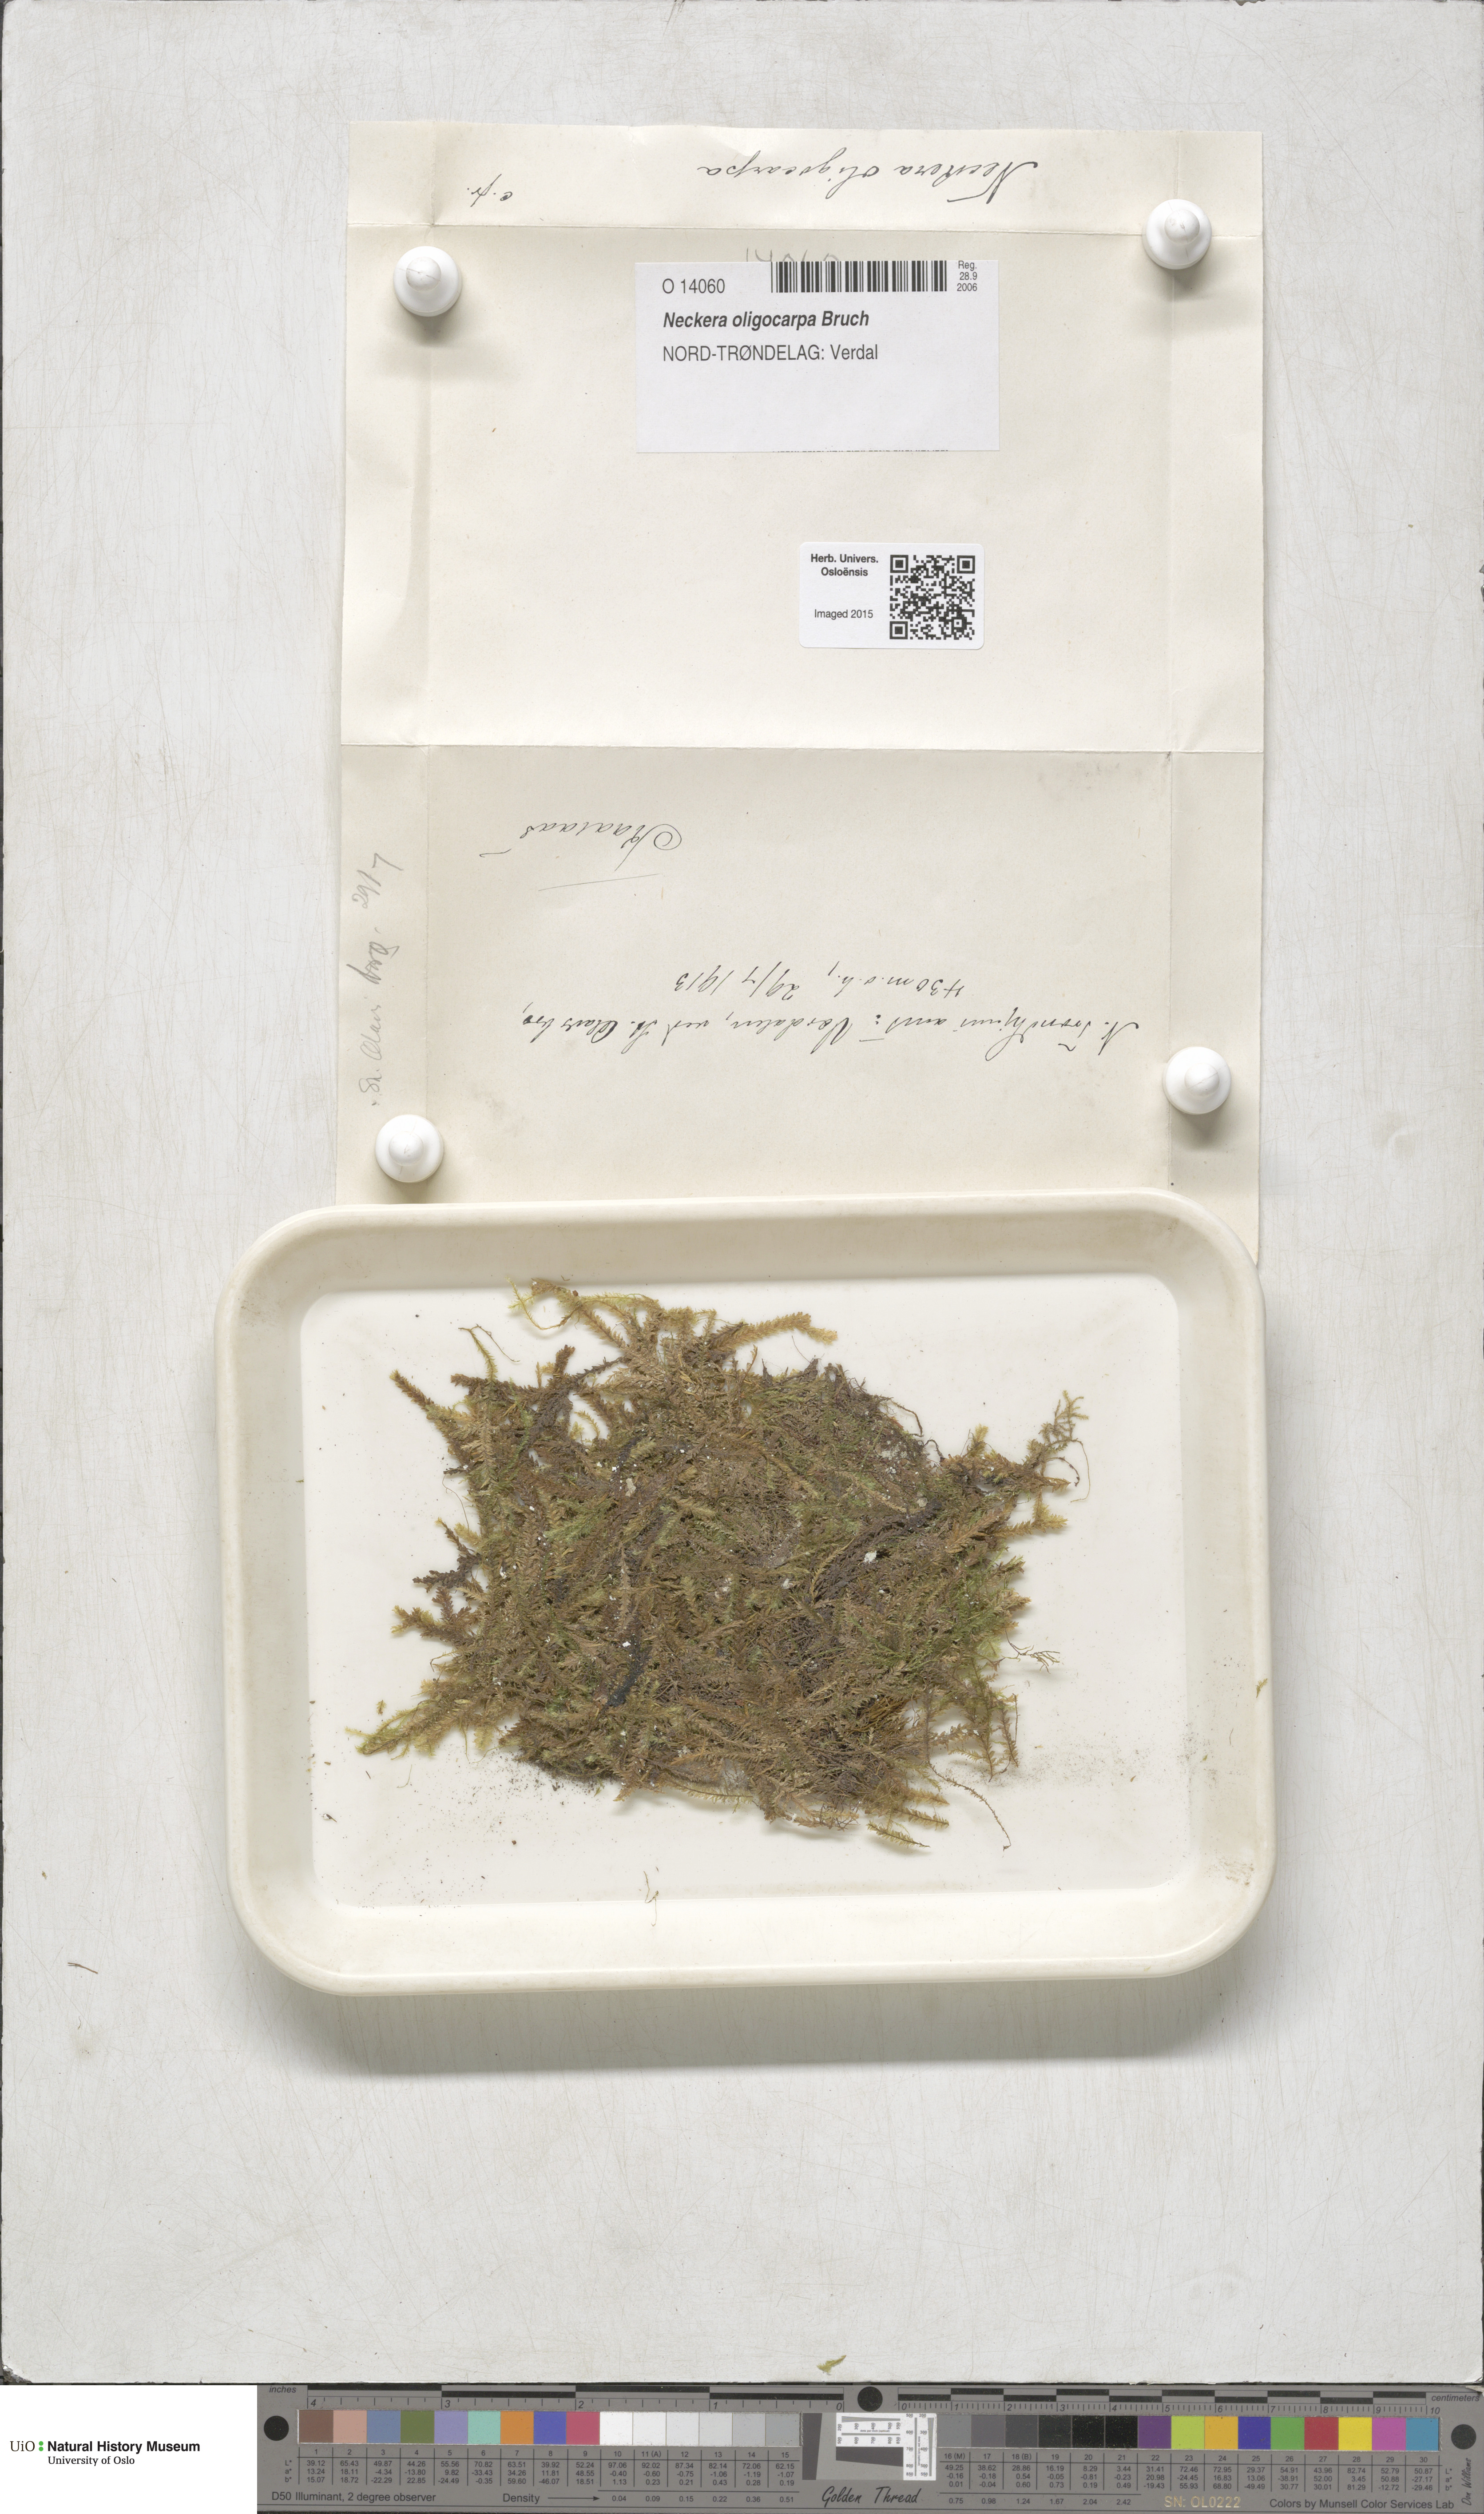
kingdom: Plantae
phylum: Bryophyta
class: Bryopsida
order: Hypnales
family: Neckeraceae
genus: Neckera
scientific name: Neckera oligocarpa
